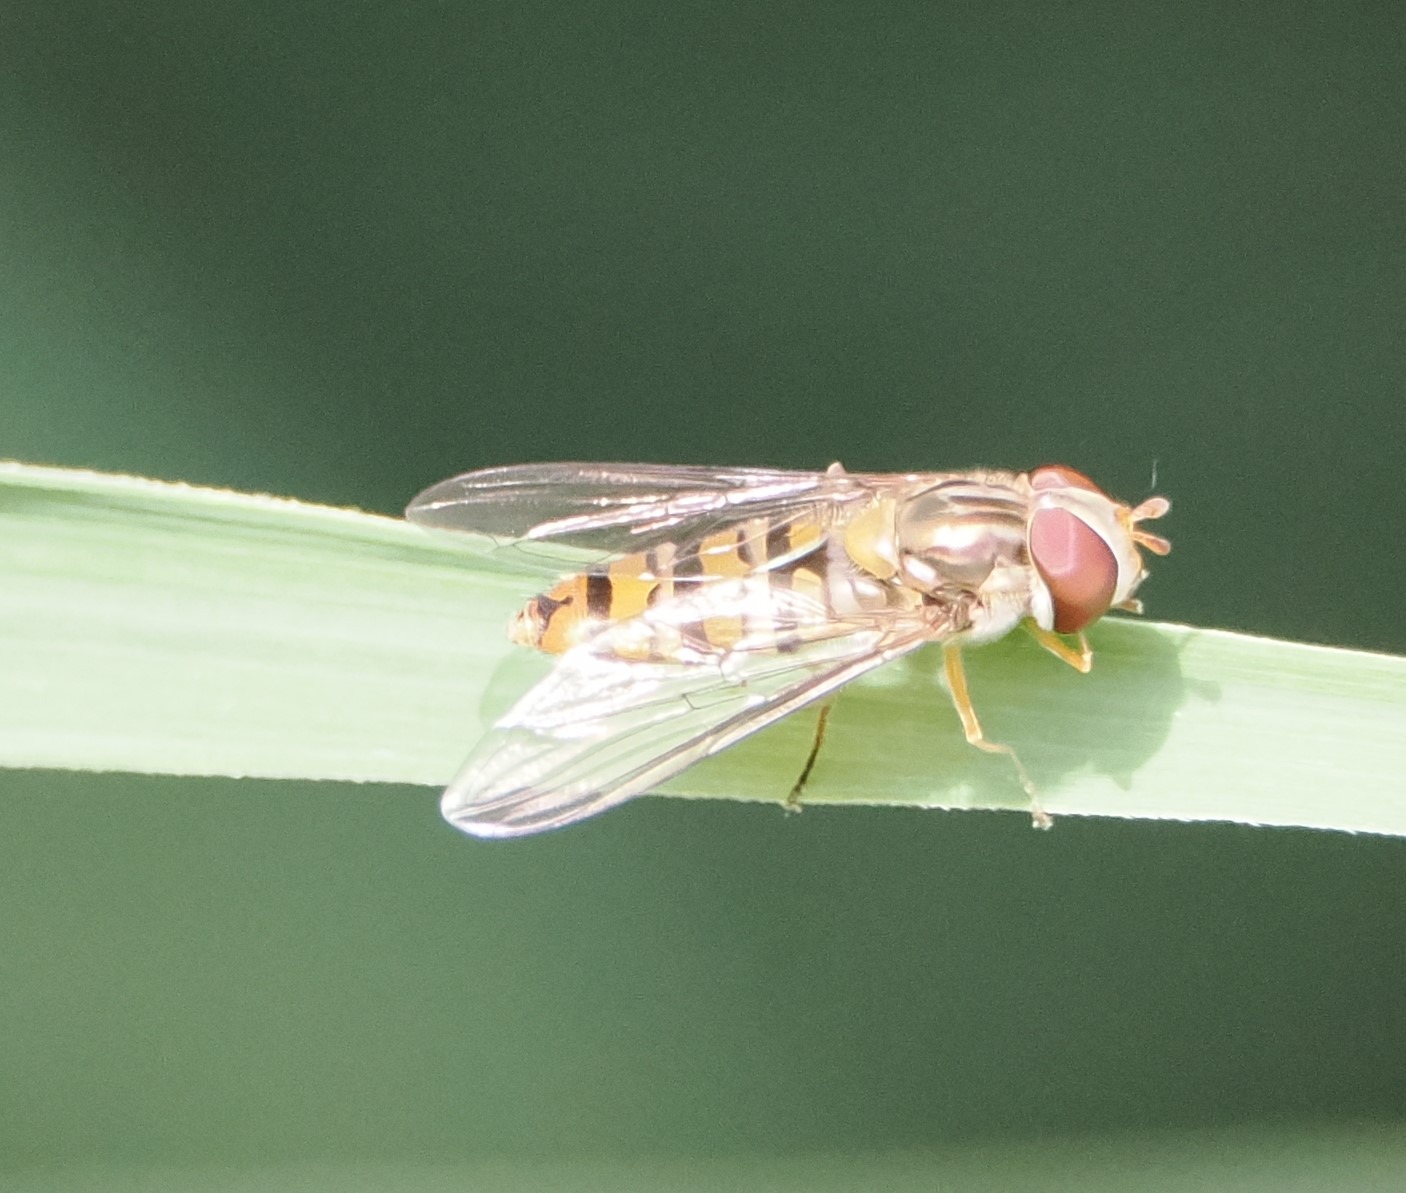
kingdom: Animalia
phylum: Arthropoda
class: Insecta
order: Diptera
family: Syrphidae
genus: Episyrphus
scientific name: Episyrphus balteatus
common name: Dobbeltbåndet svirreflue
